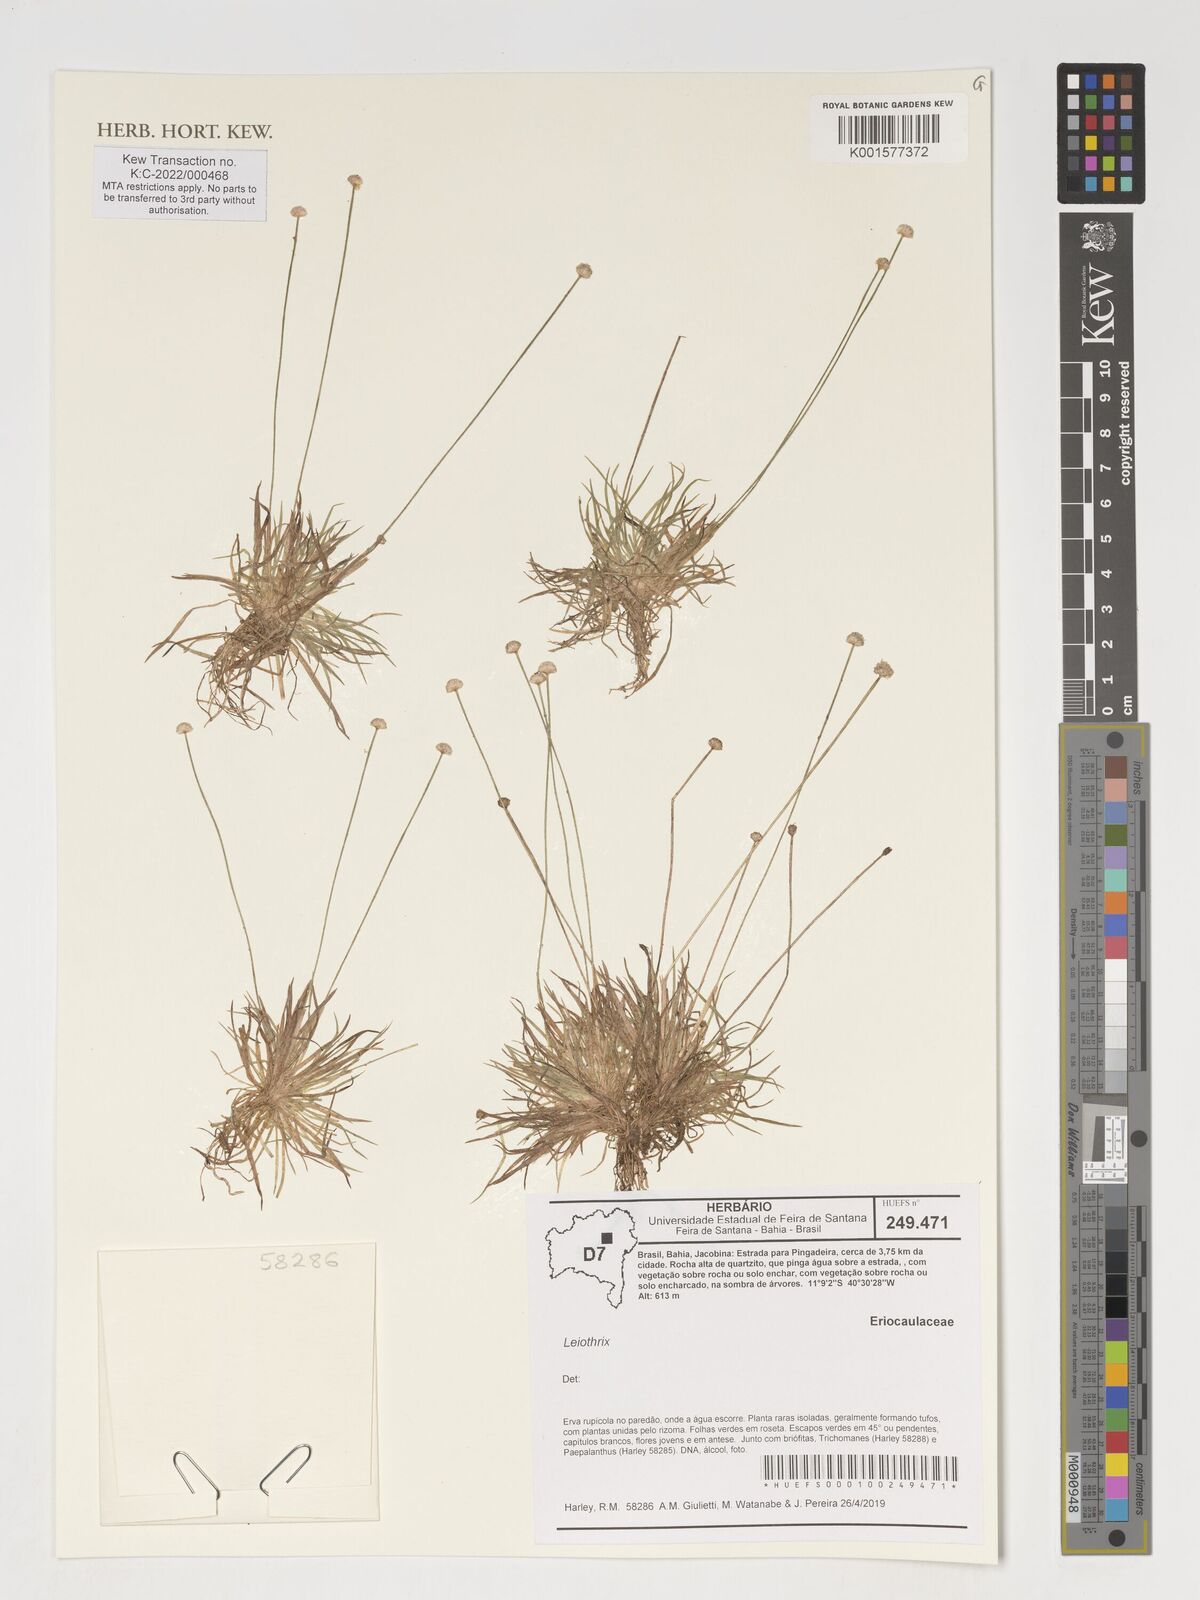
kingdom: Plantae
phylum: Tracheophyta
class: Liliopsida
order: Poales
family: Eriocaulaceae
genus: Leiothrix
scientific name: Leiothrix
